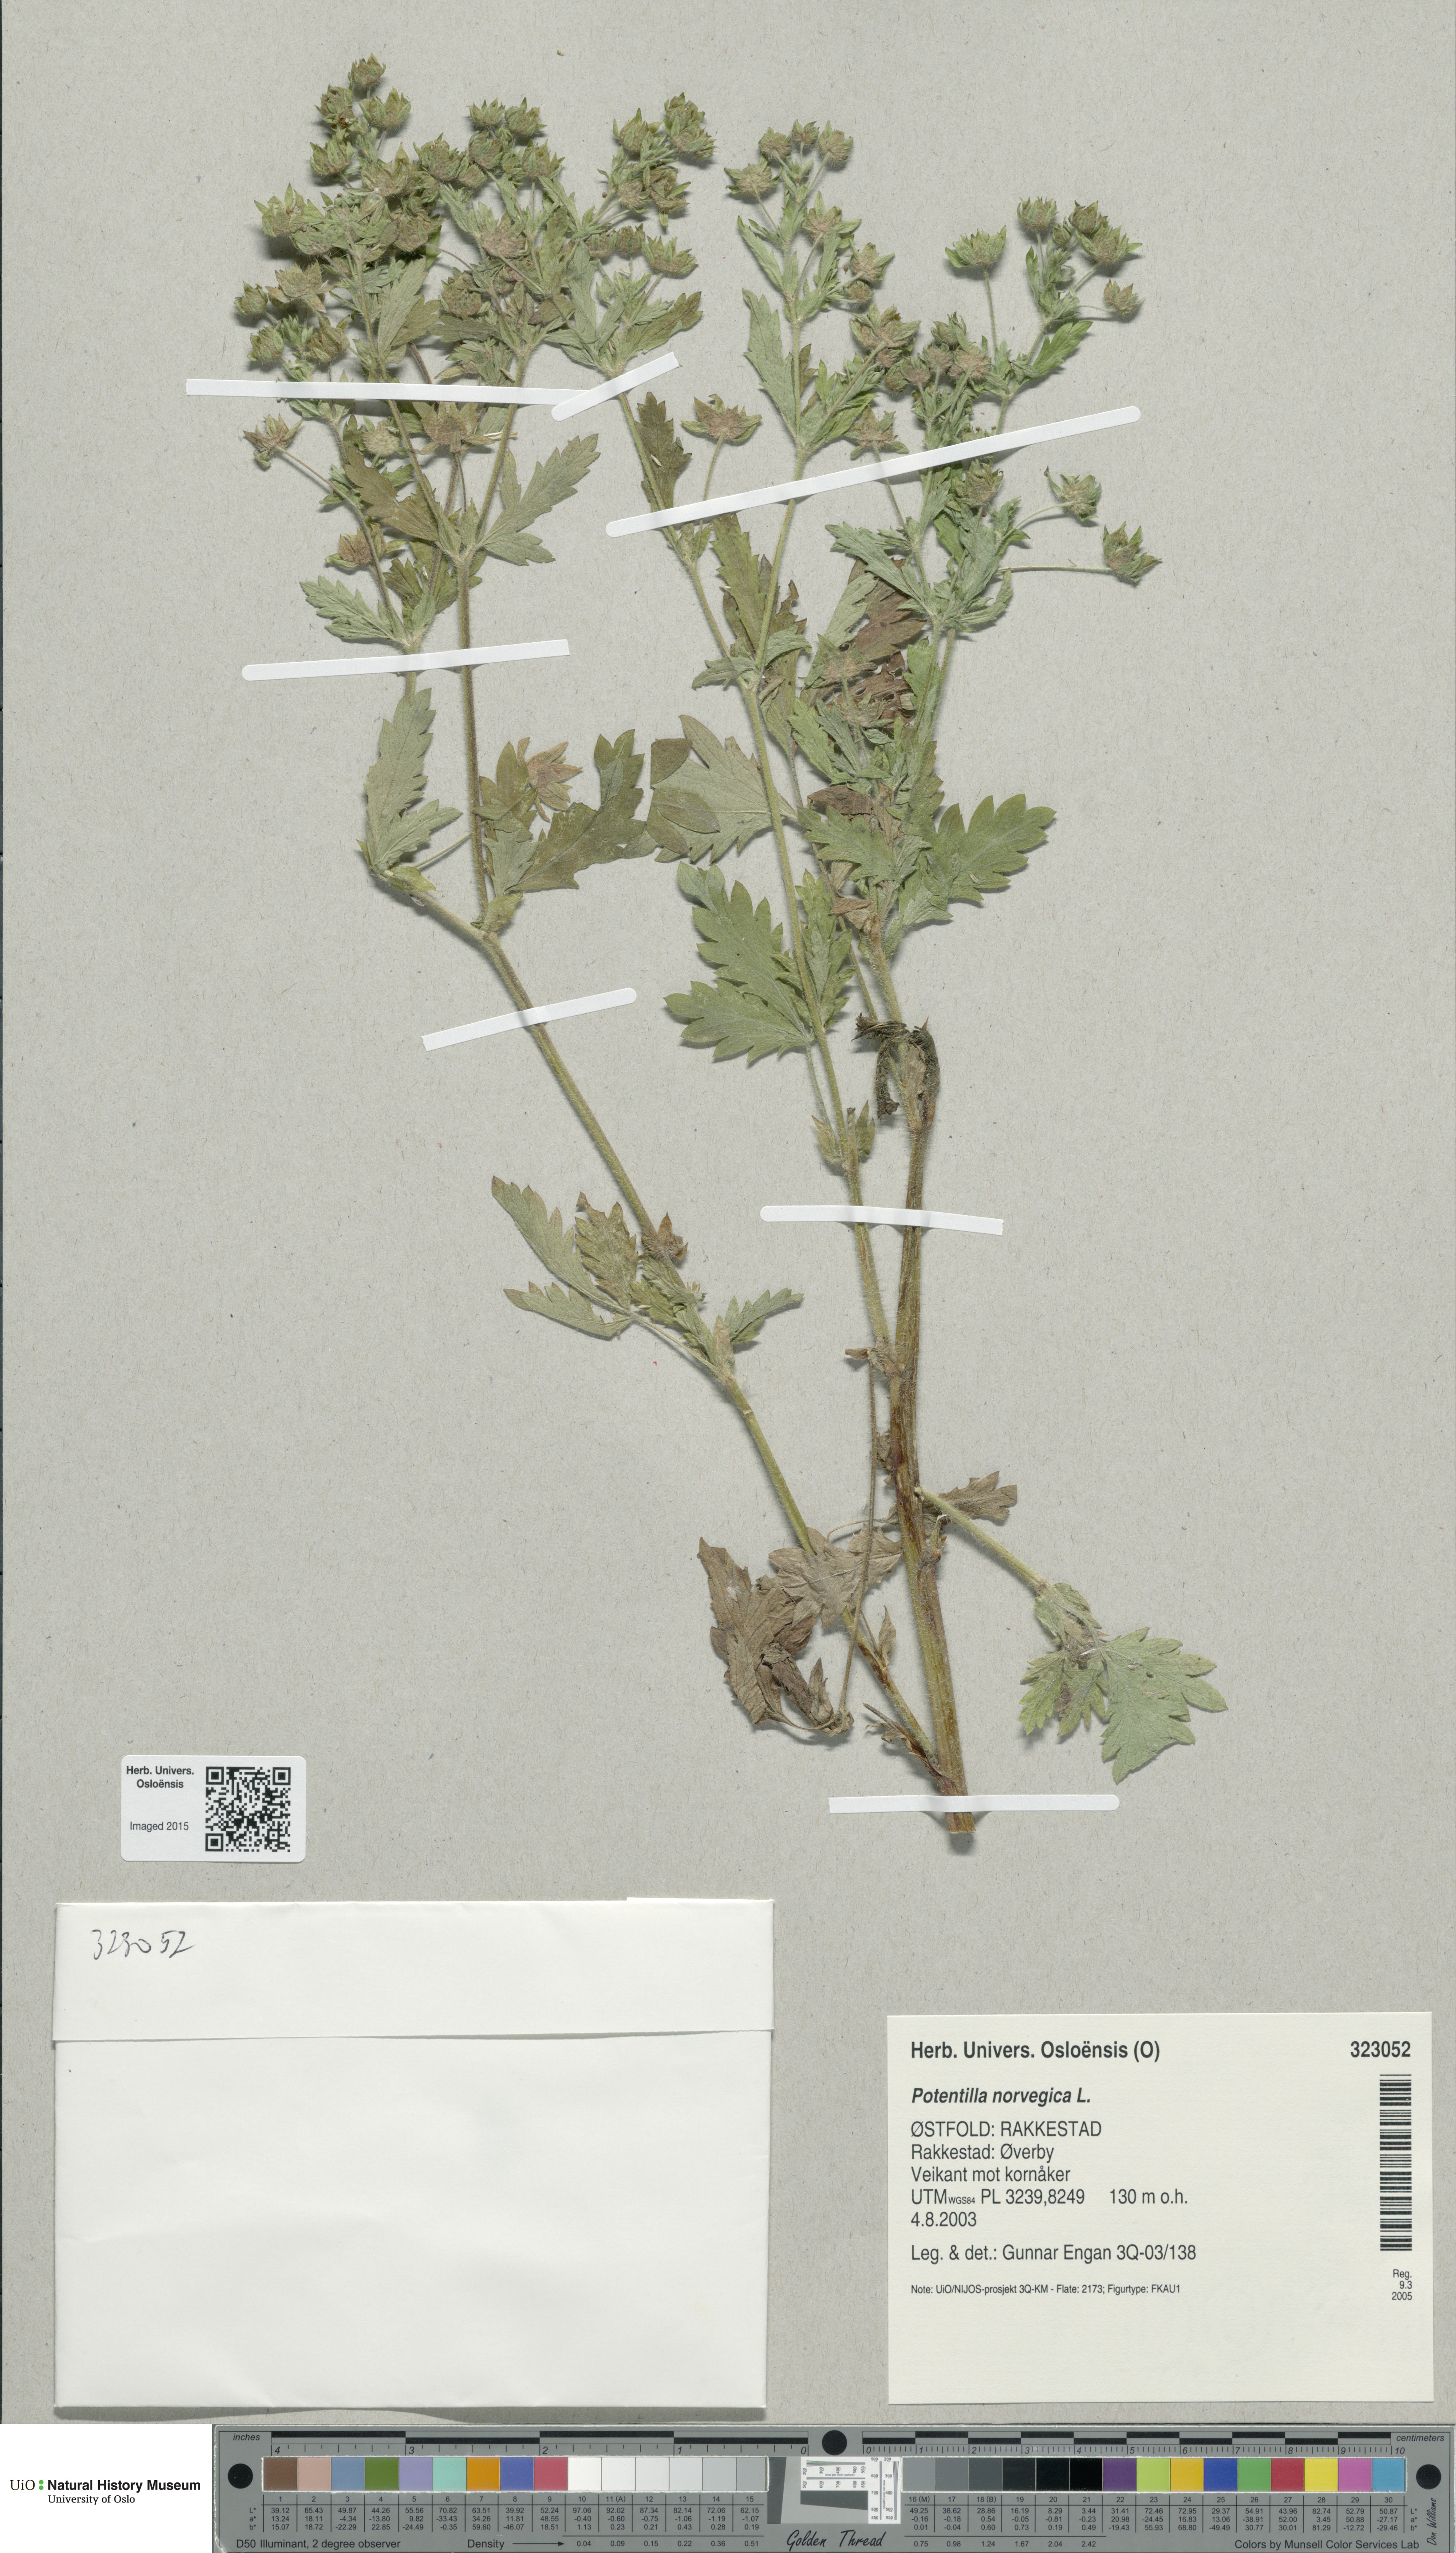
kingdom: Plantae
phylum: Tracheophyta
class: Magnoliopsida
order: Rosales
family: Rosaceae
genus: Potentilla
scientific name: Potentilla norvegica
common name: Ternate-leaved cinquefoil
